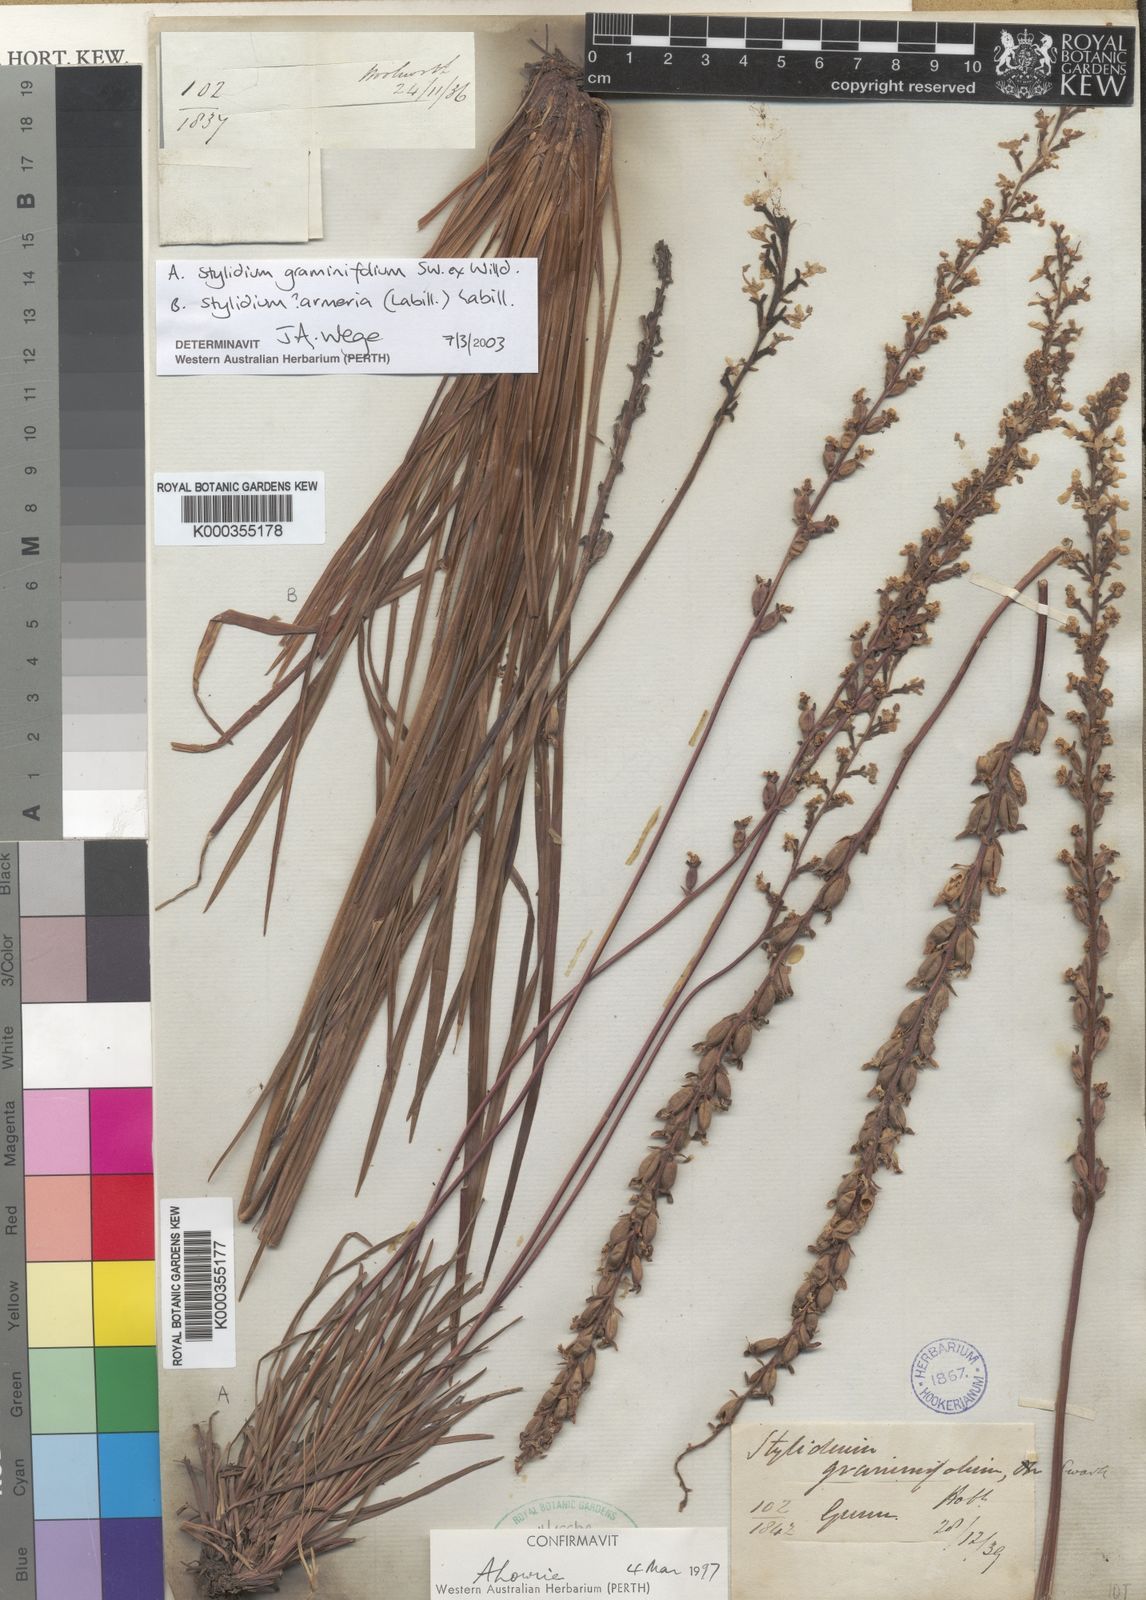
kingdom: Plantae
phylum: Tracheophyta
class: Magnoliopsida
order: Asterales
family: Stylidiaceae
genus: Stylidium
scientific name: Stylidium armeria
